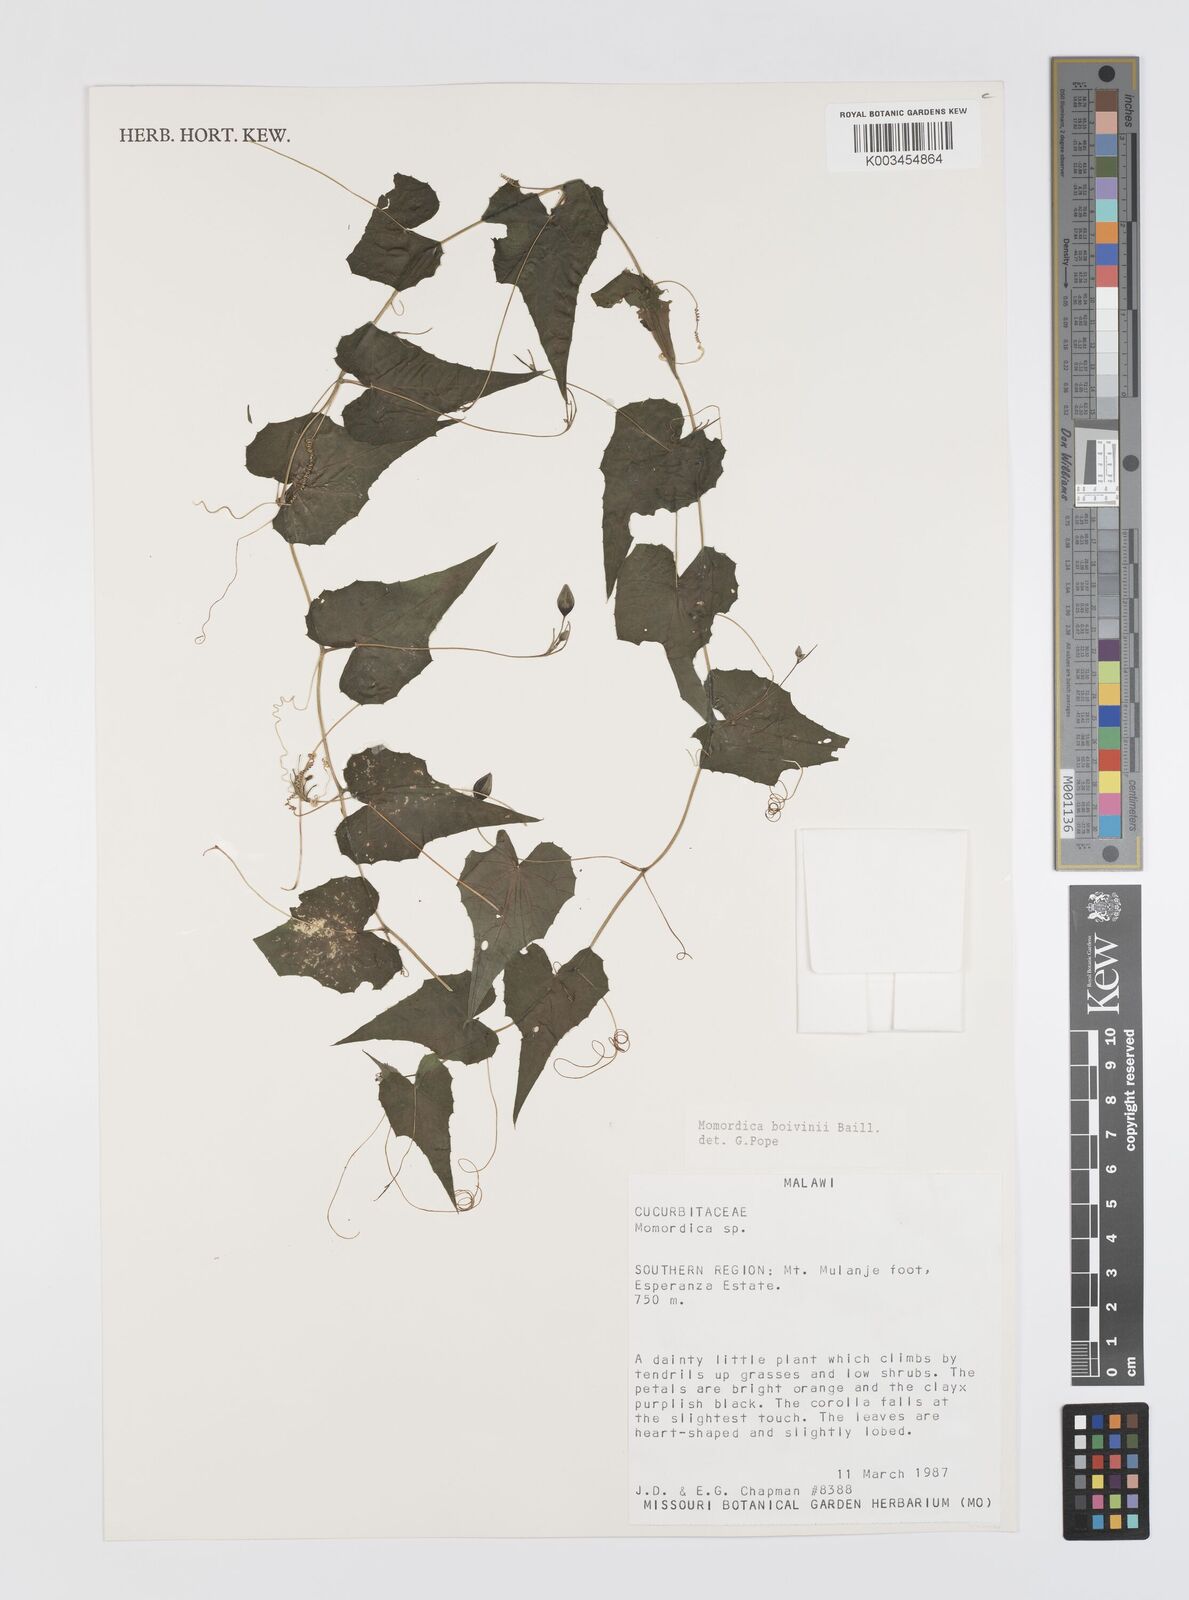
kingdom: Plantae
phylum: Tracheophyta
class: Magnoliopsida
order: Cucurbitales
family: Cucurbitaceae
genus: Momordica
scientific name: Momordica boivinii
